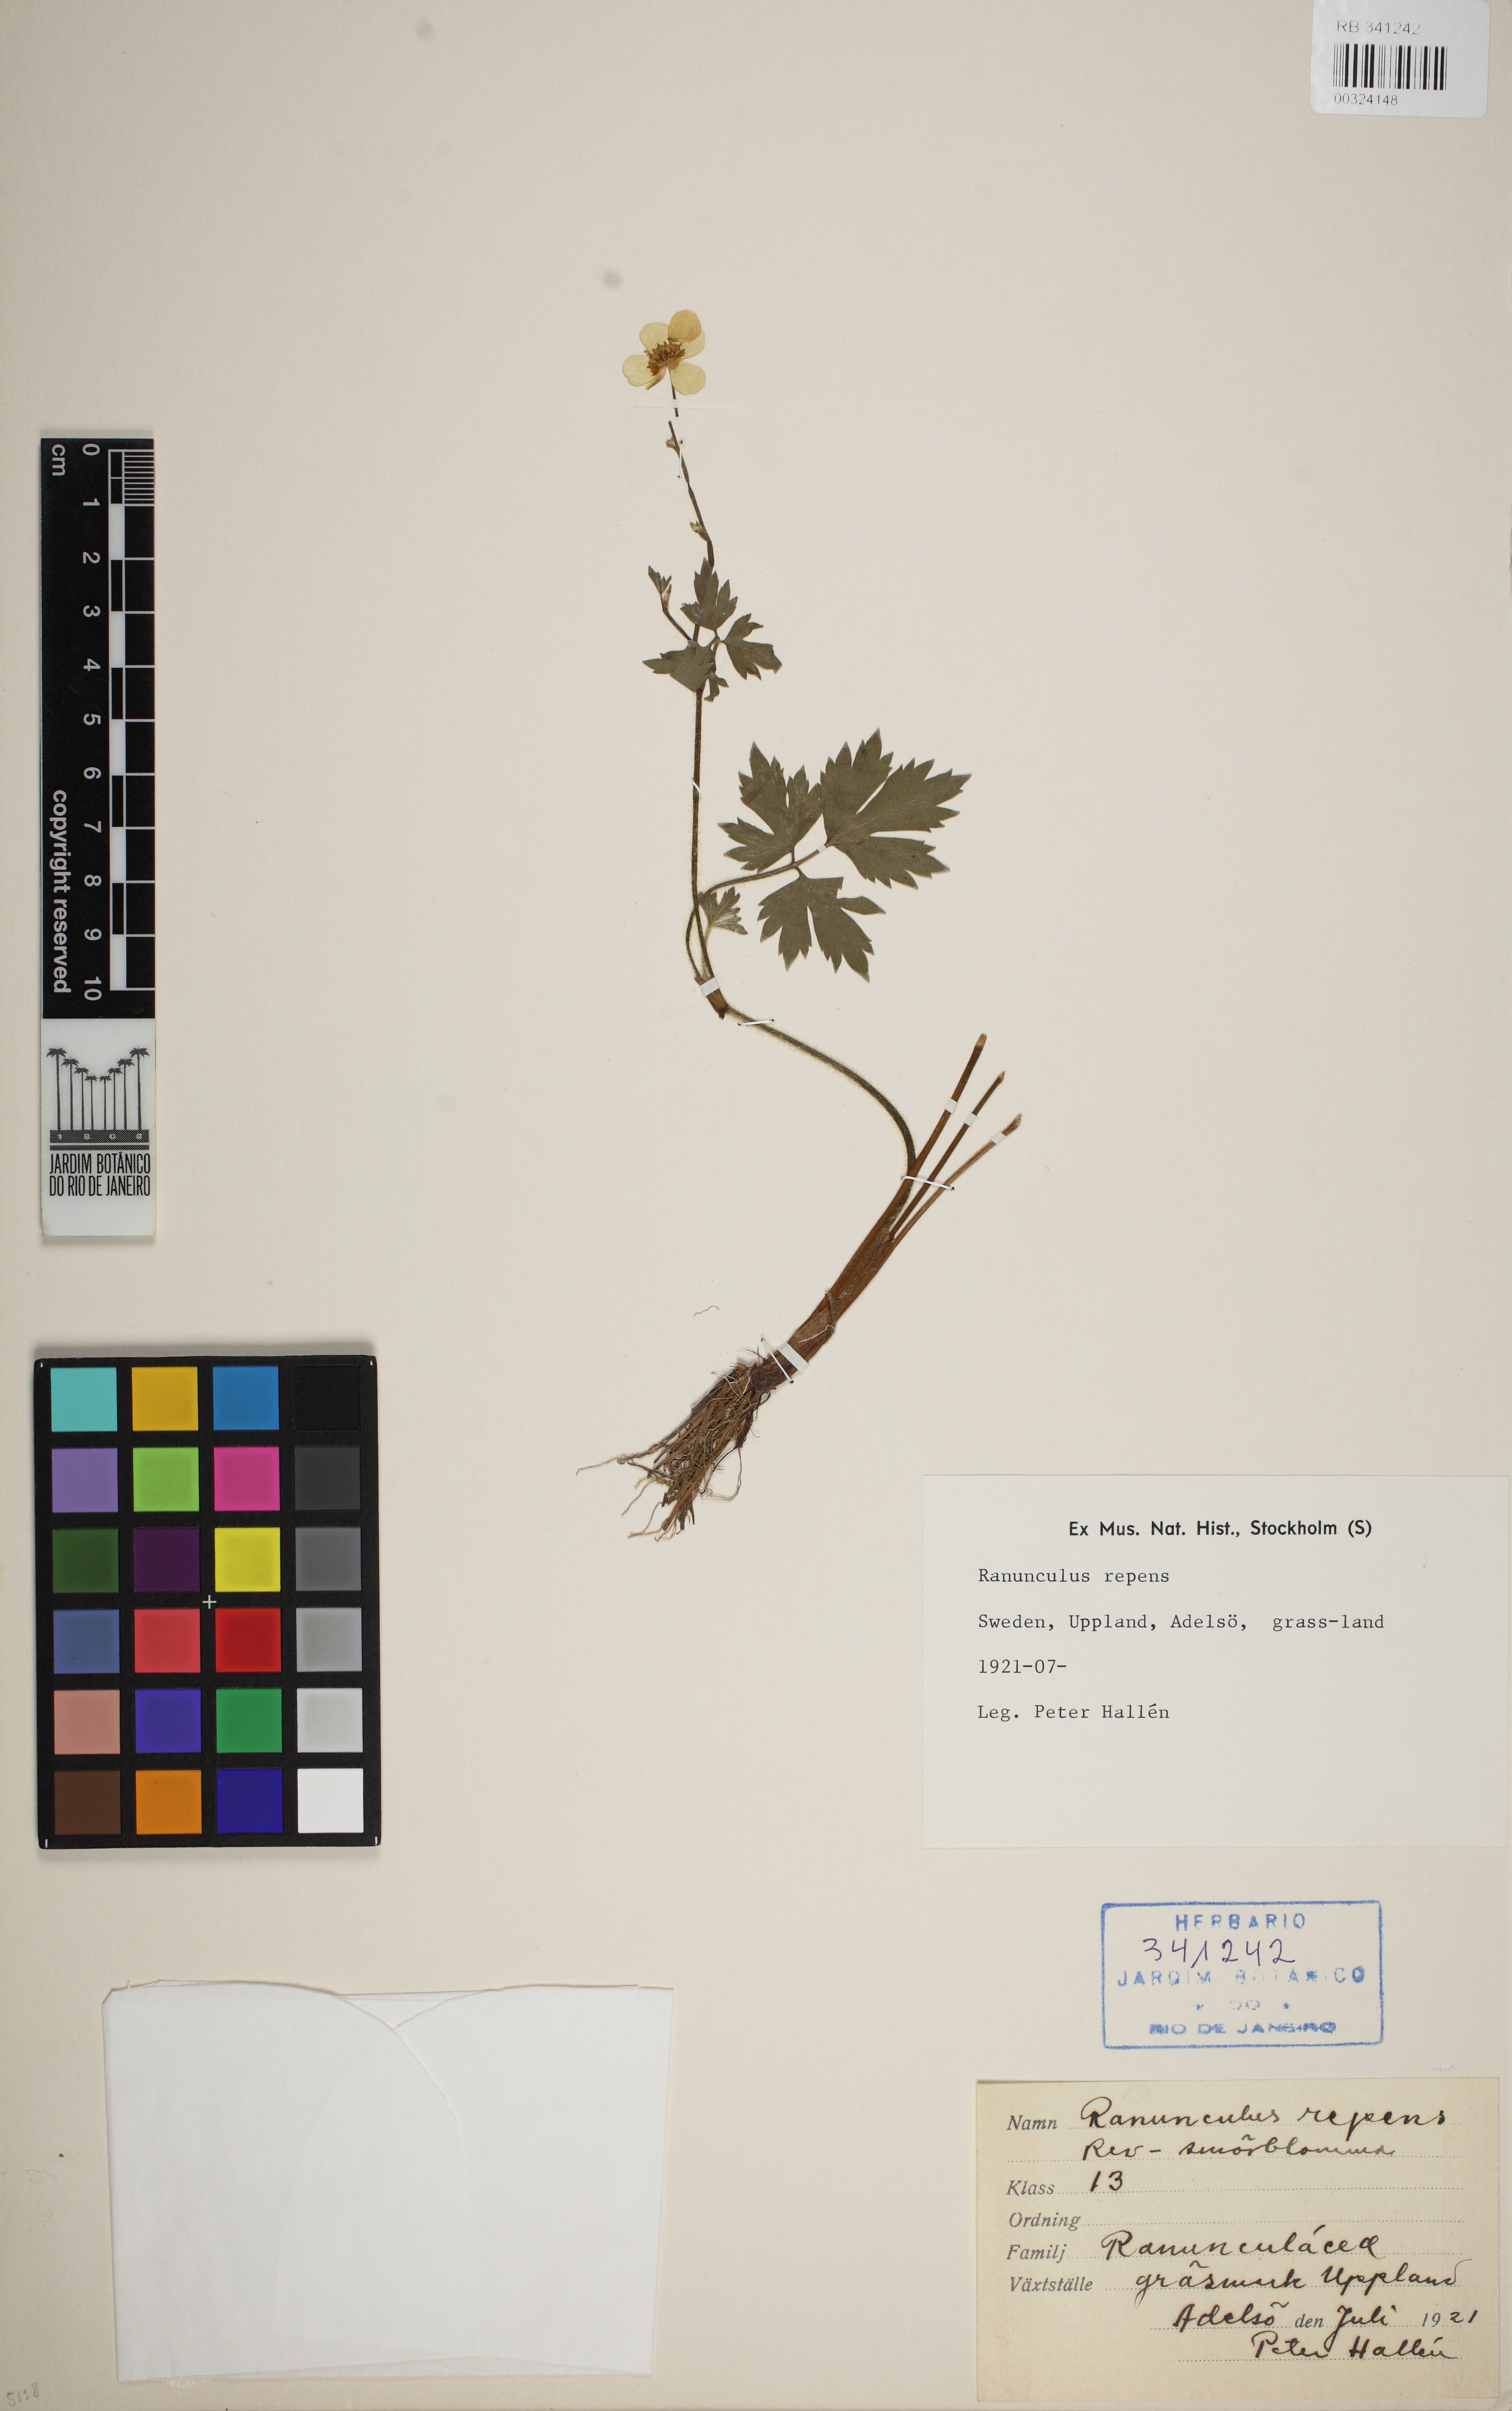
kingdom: Plantae
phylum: Tracheophyta
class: Magnoliopsida
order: Ranunculales
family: Ranunculaceae
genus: Ranunculus
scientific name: Ranunculus repens
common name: Creeping buttercup
